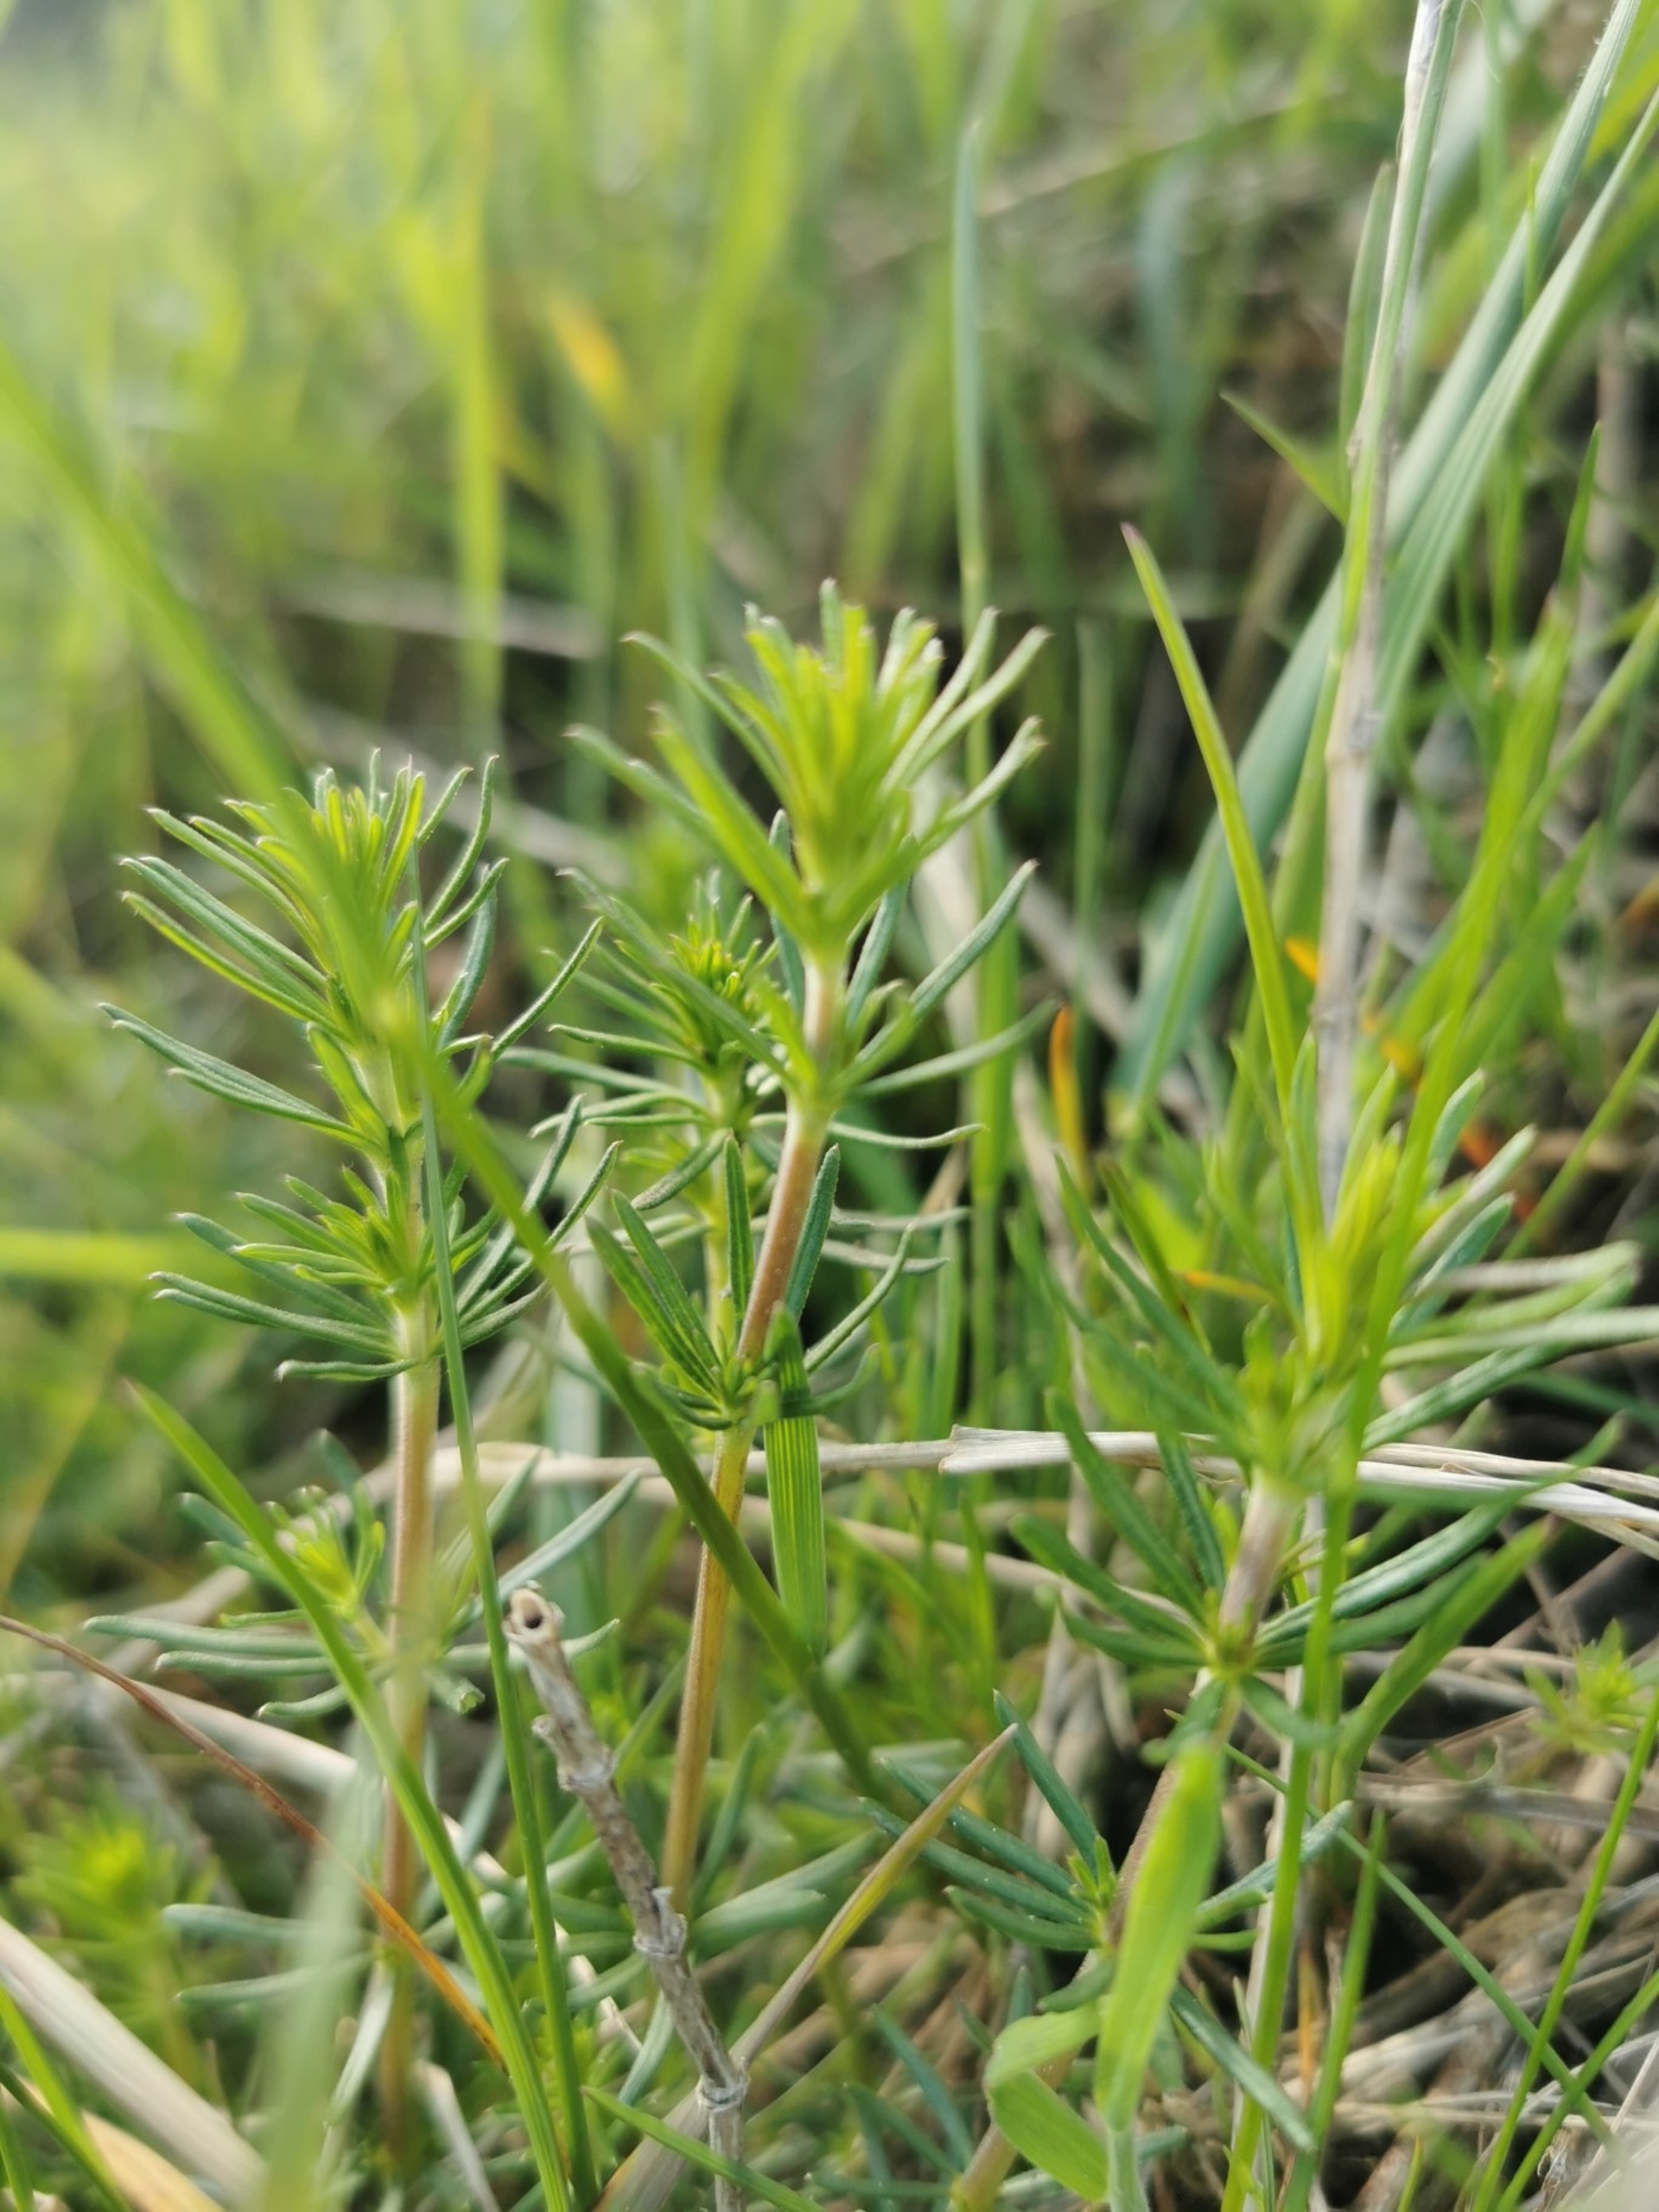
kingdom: Plantae
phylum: Tracheophyta
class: Magnoliopsida
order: Gentianales
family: Rubiaceae
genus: Galium
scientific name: Galium verum
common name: Gul snerre
